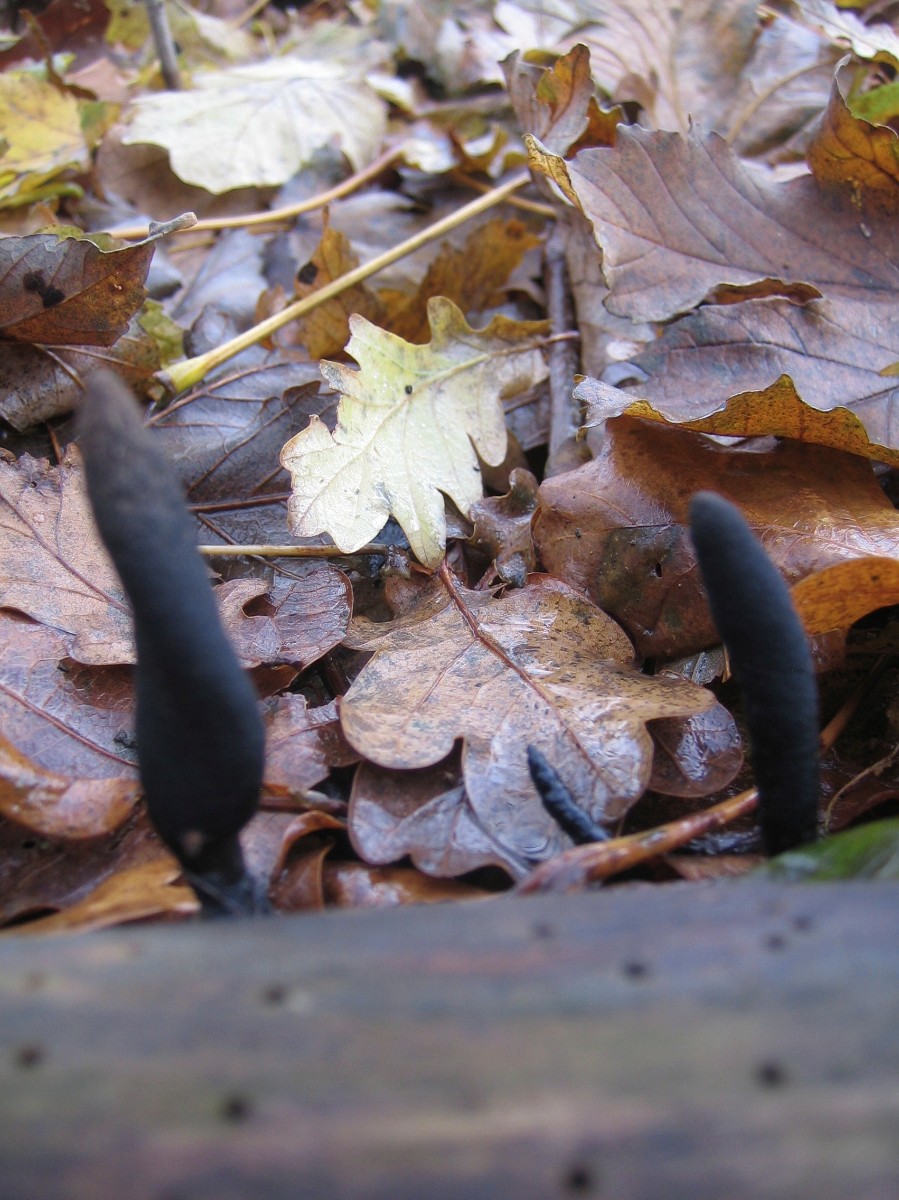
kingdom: Fungi
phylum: Ascomycota
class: Sordariomycetes
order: Xylariales
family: Xylariaceae
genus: Xylaria
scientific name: Xylaria longipes
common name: slank stødsvamp
